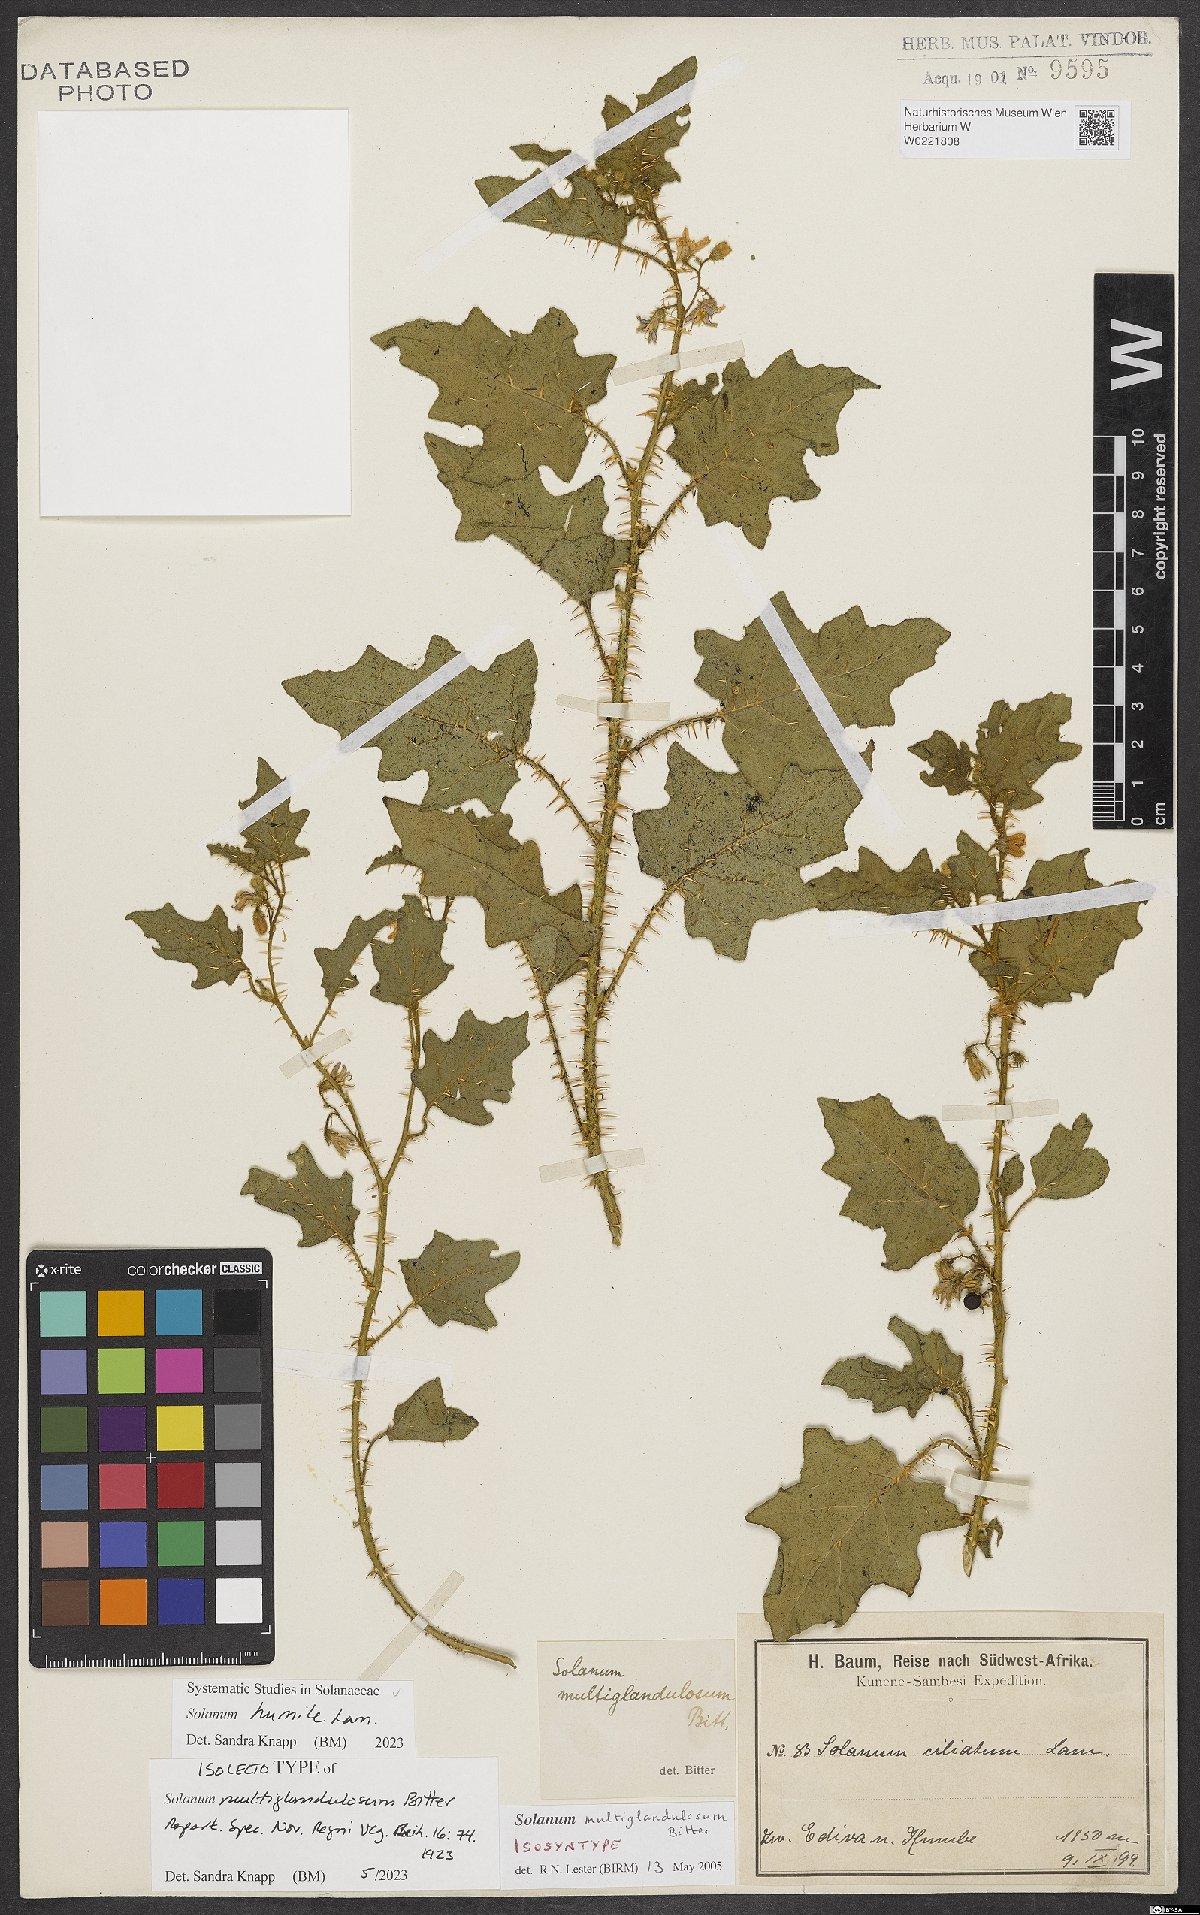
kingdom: Plantae
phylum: Tracheophyta
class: Magnoliopsida
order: Solanales
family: Solanaceae
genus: Solanum
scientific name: Solanum humile
